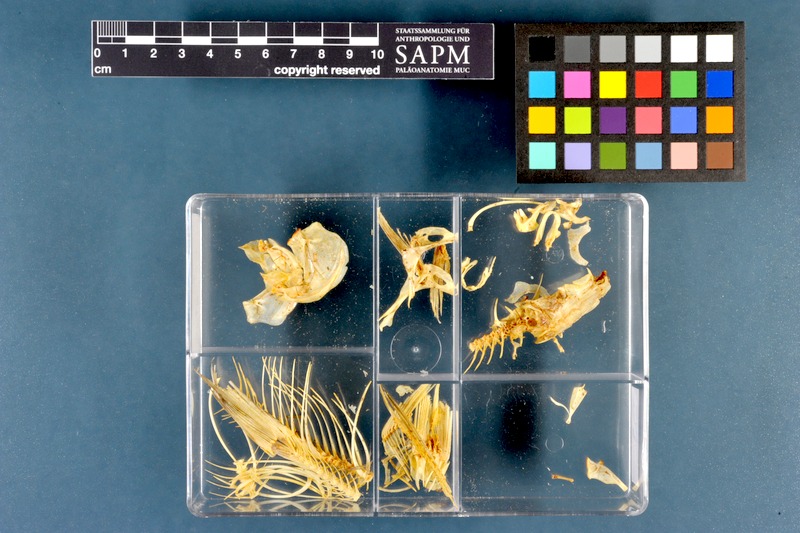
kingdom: Animalia
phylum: Chordata
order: Cypriniformes
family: Cyprinidae
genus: Rutilus
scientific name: Rutilus rutilus
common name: Roach
